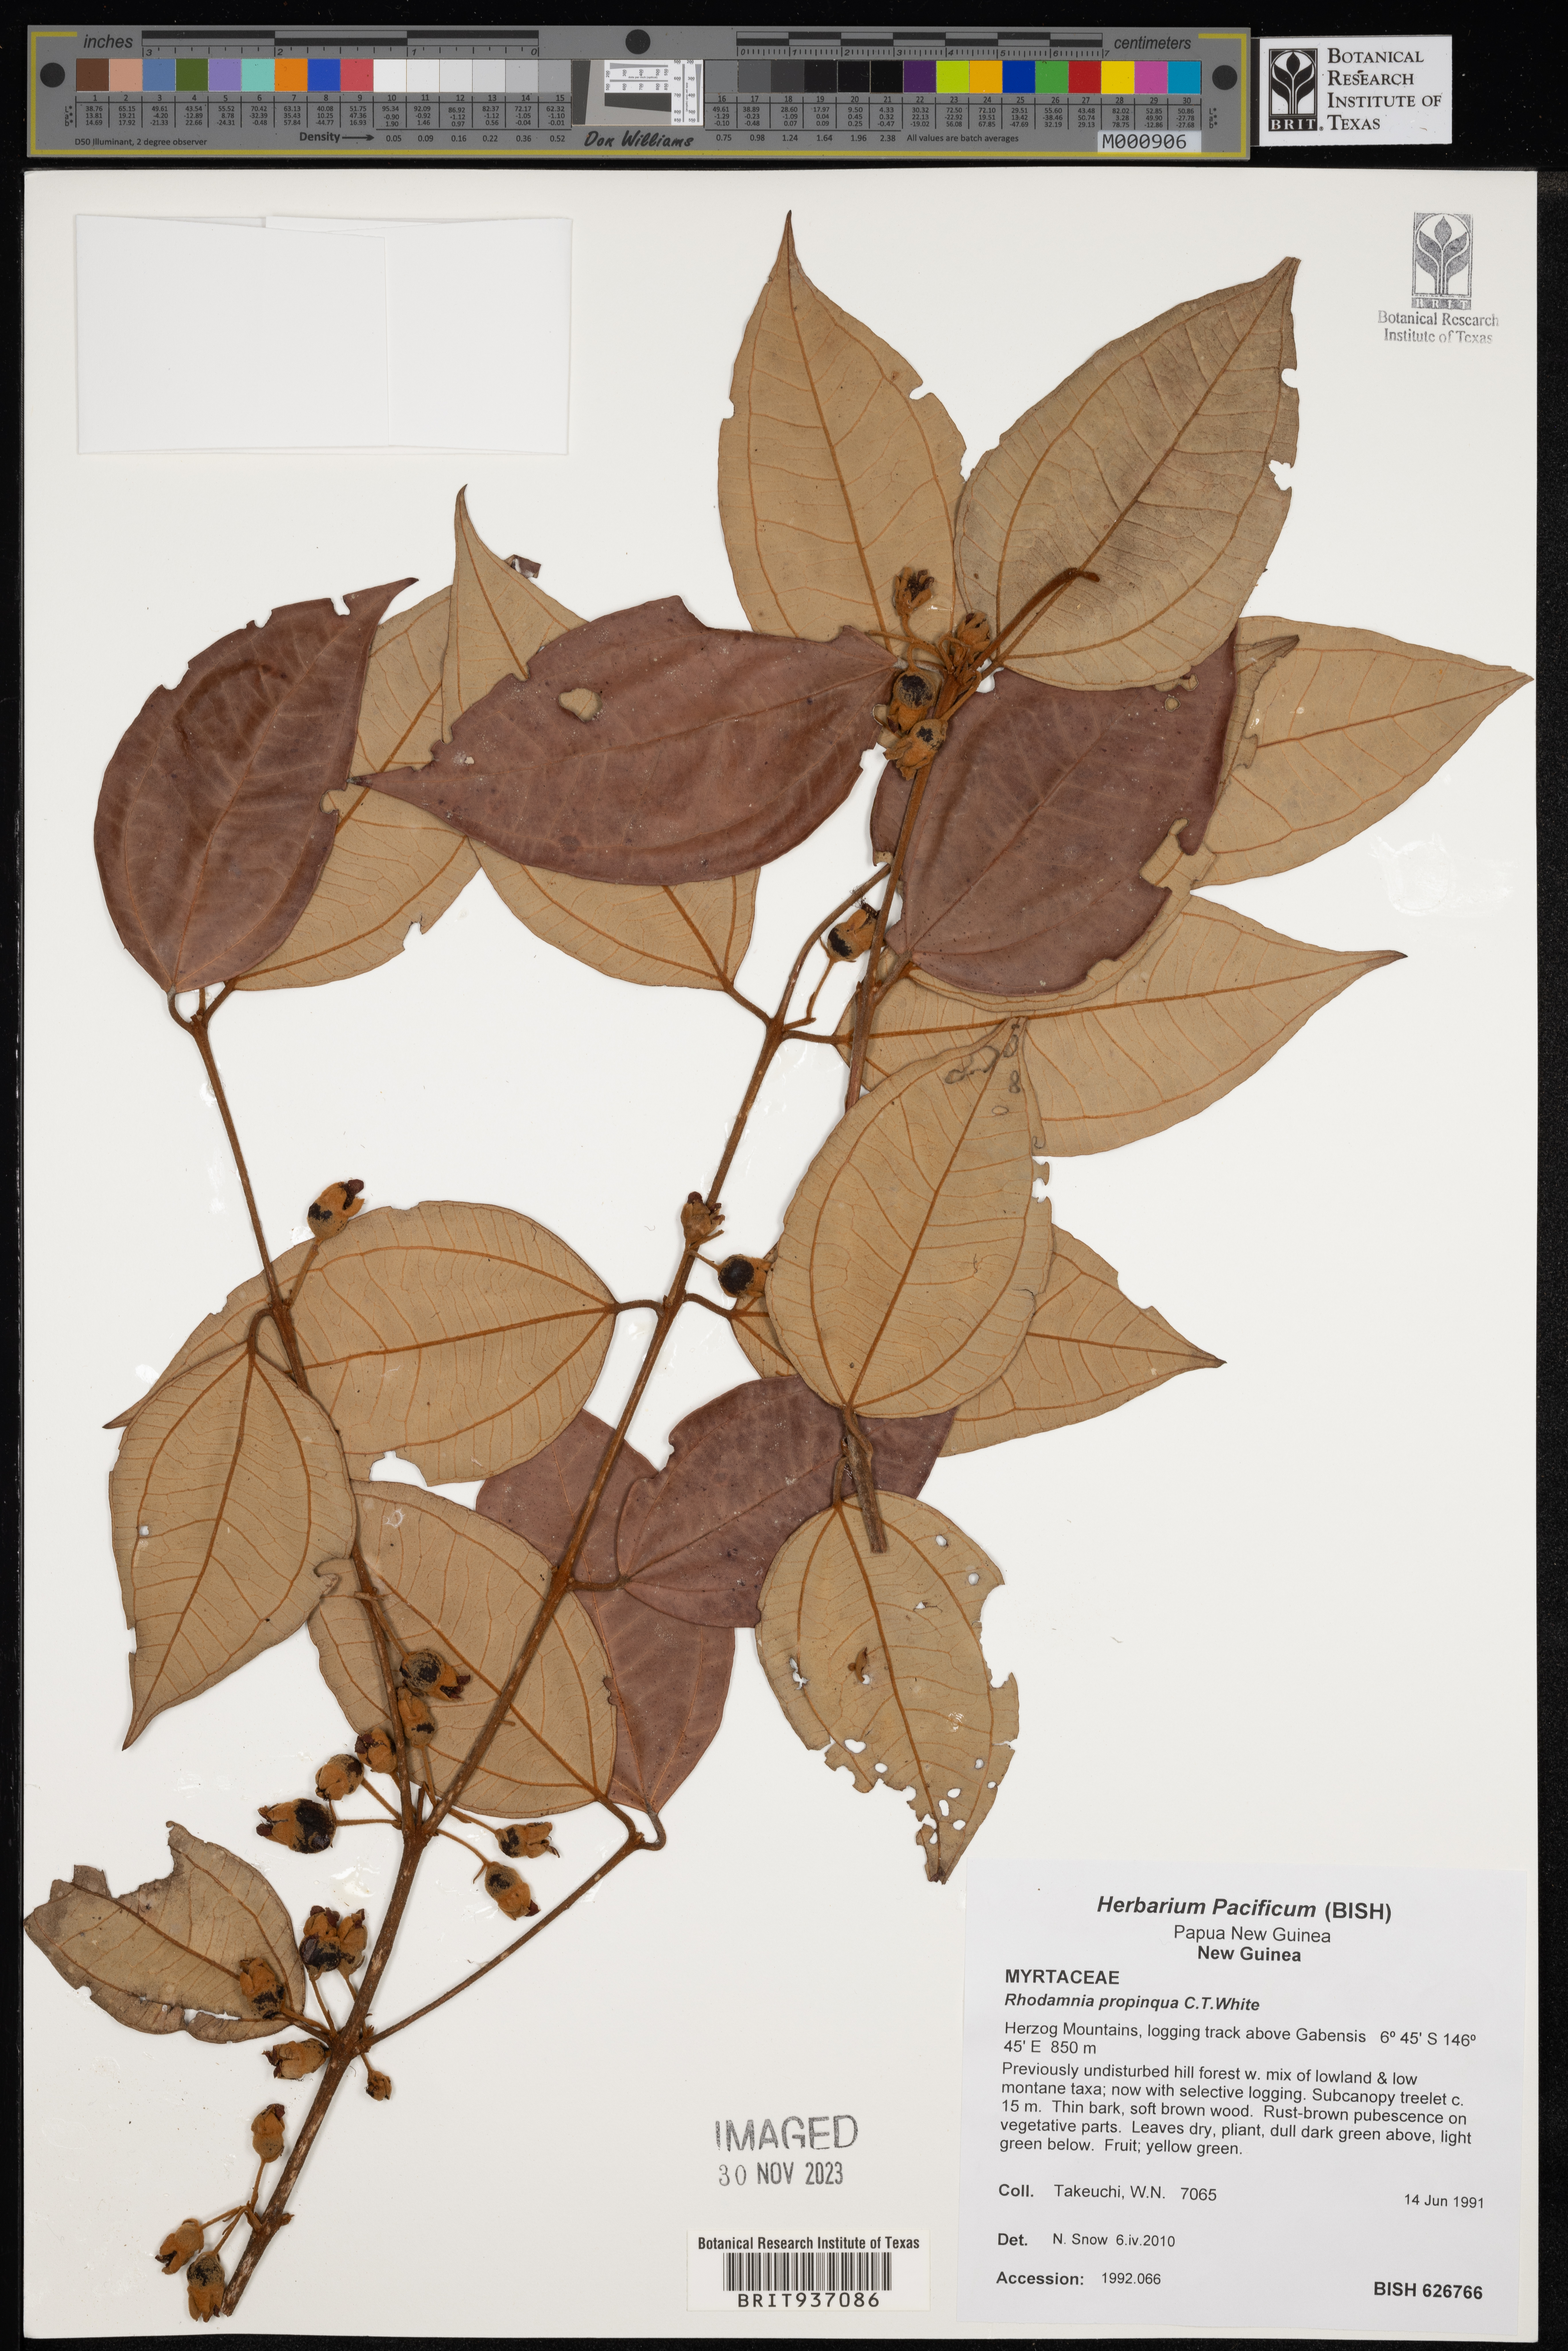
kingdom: Plantae
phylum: Tracheophyta
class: Magnoliopsida
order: Myrtales
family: Myrtaceae
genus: Rhodamnia
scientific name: Rhodamnia
